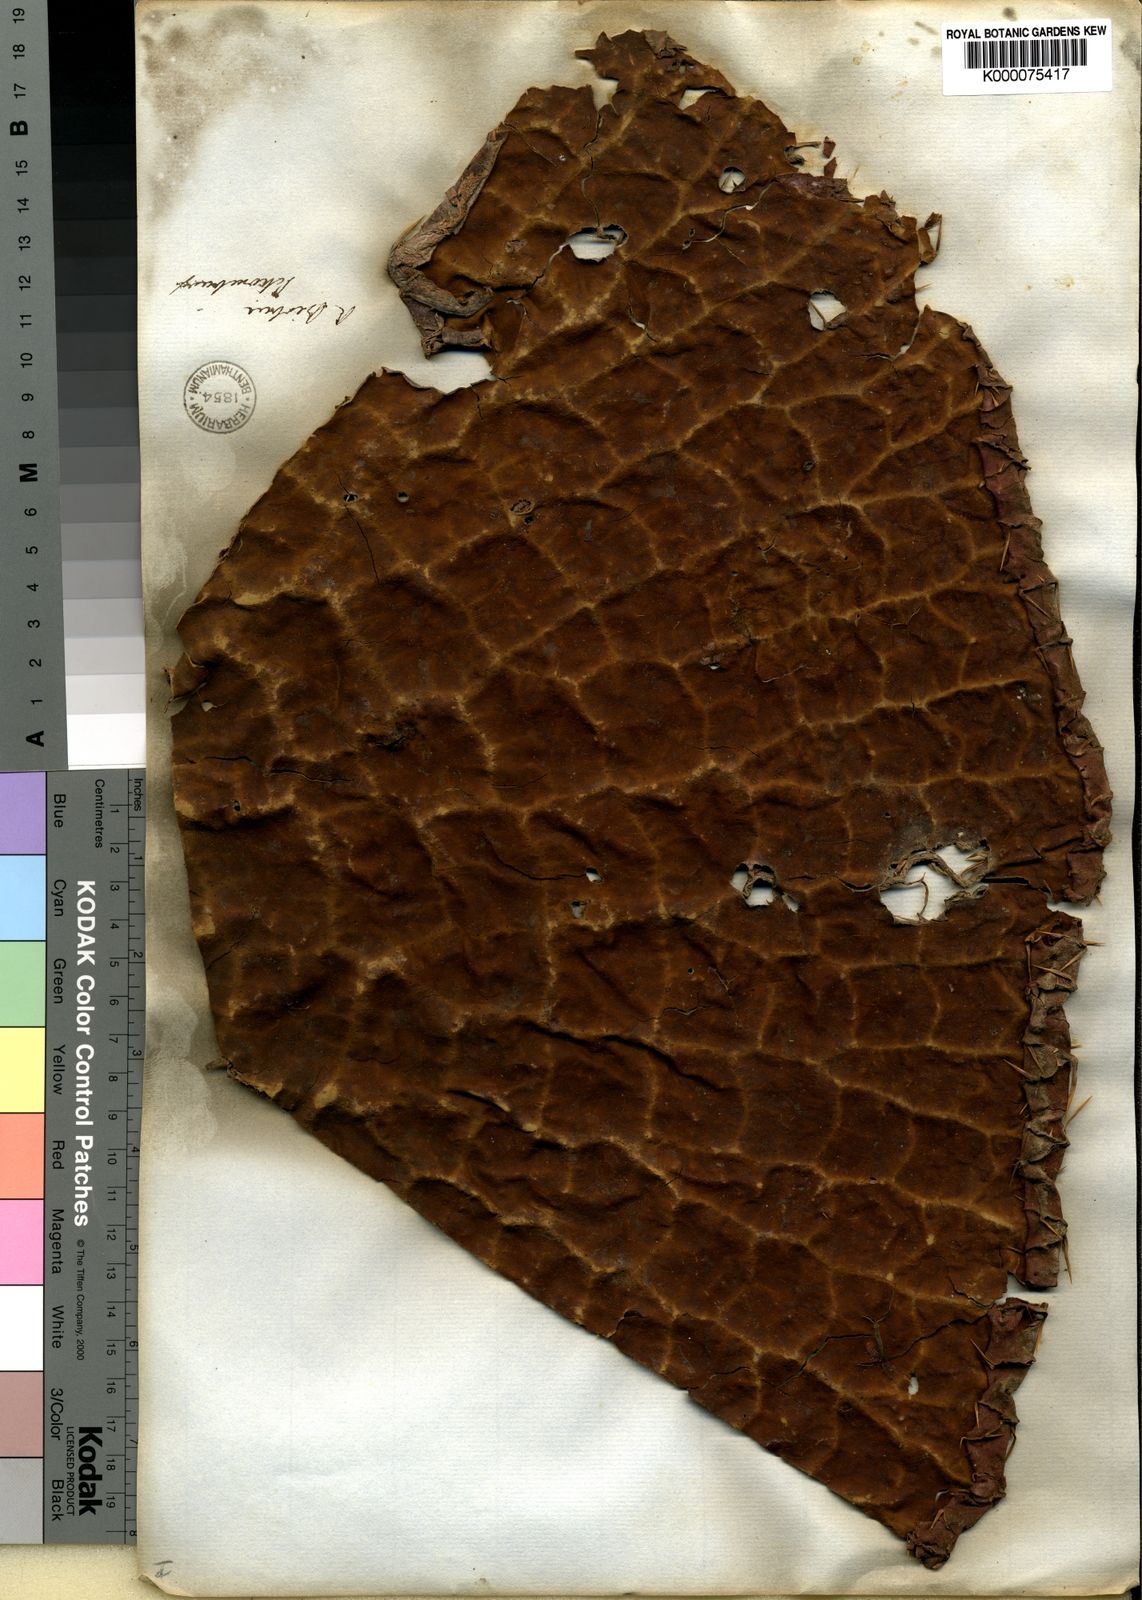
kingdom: Plantae
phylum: Tracheophyta
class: Magnoliopsida
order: Nymphaeales
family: Nymphaeaceae
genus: Victoria
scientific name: Victoria
